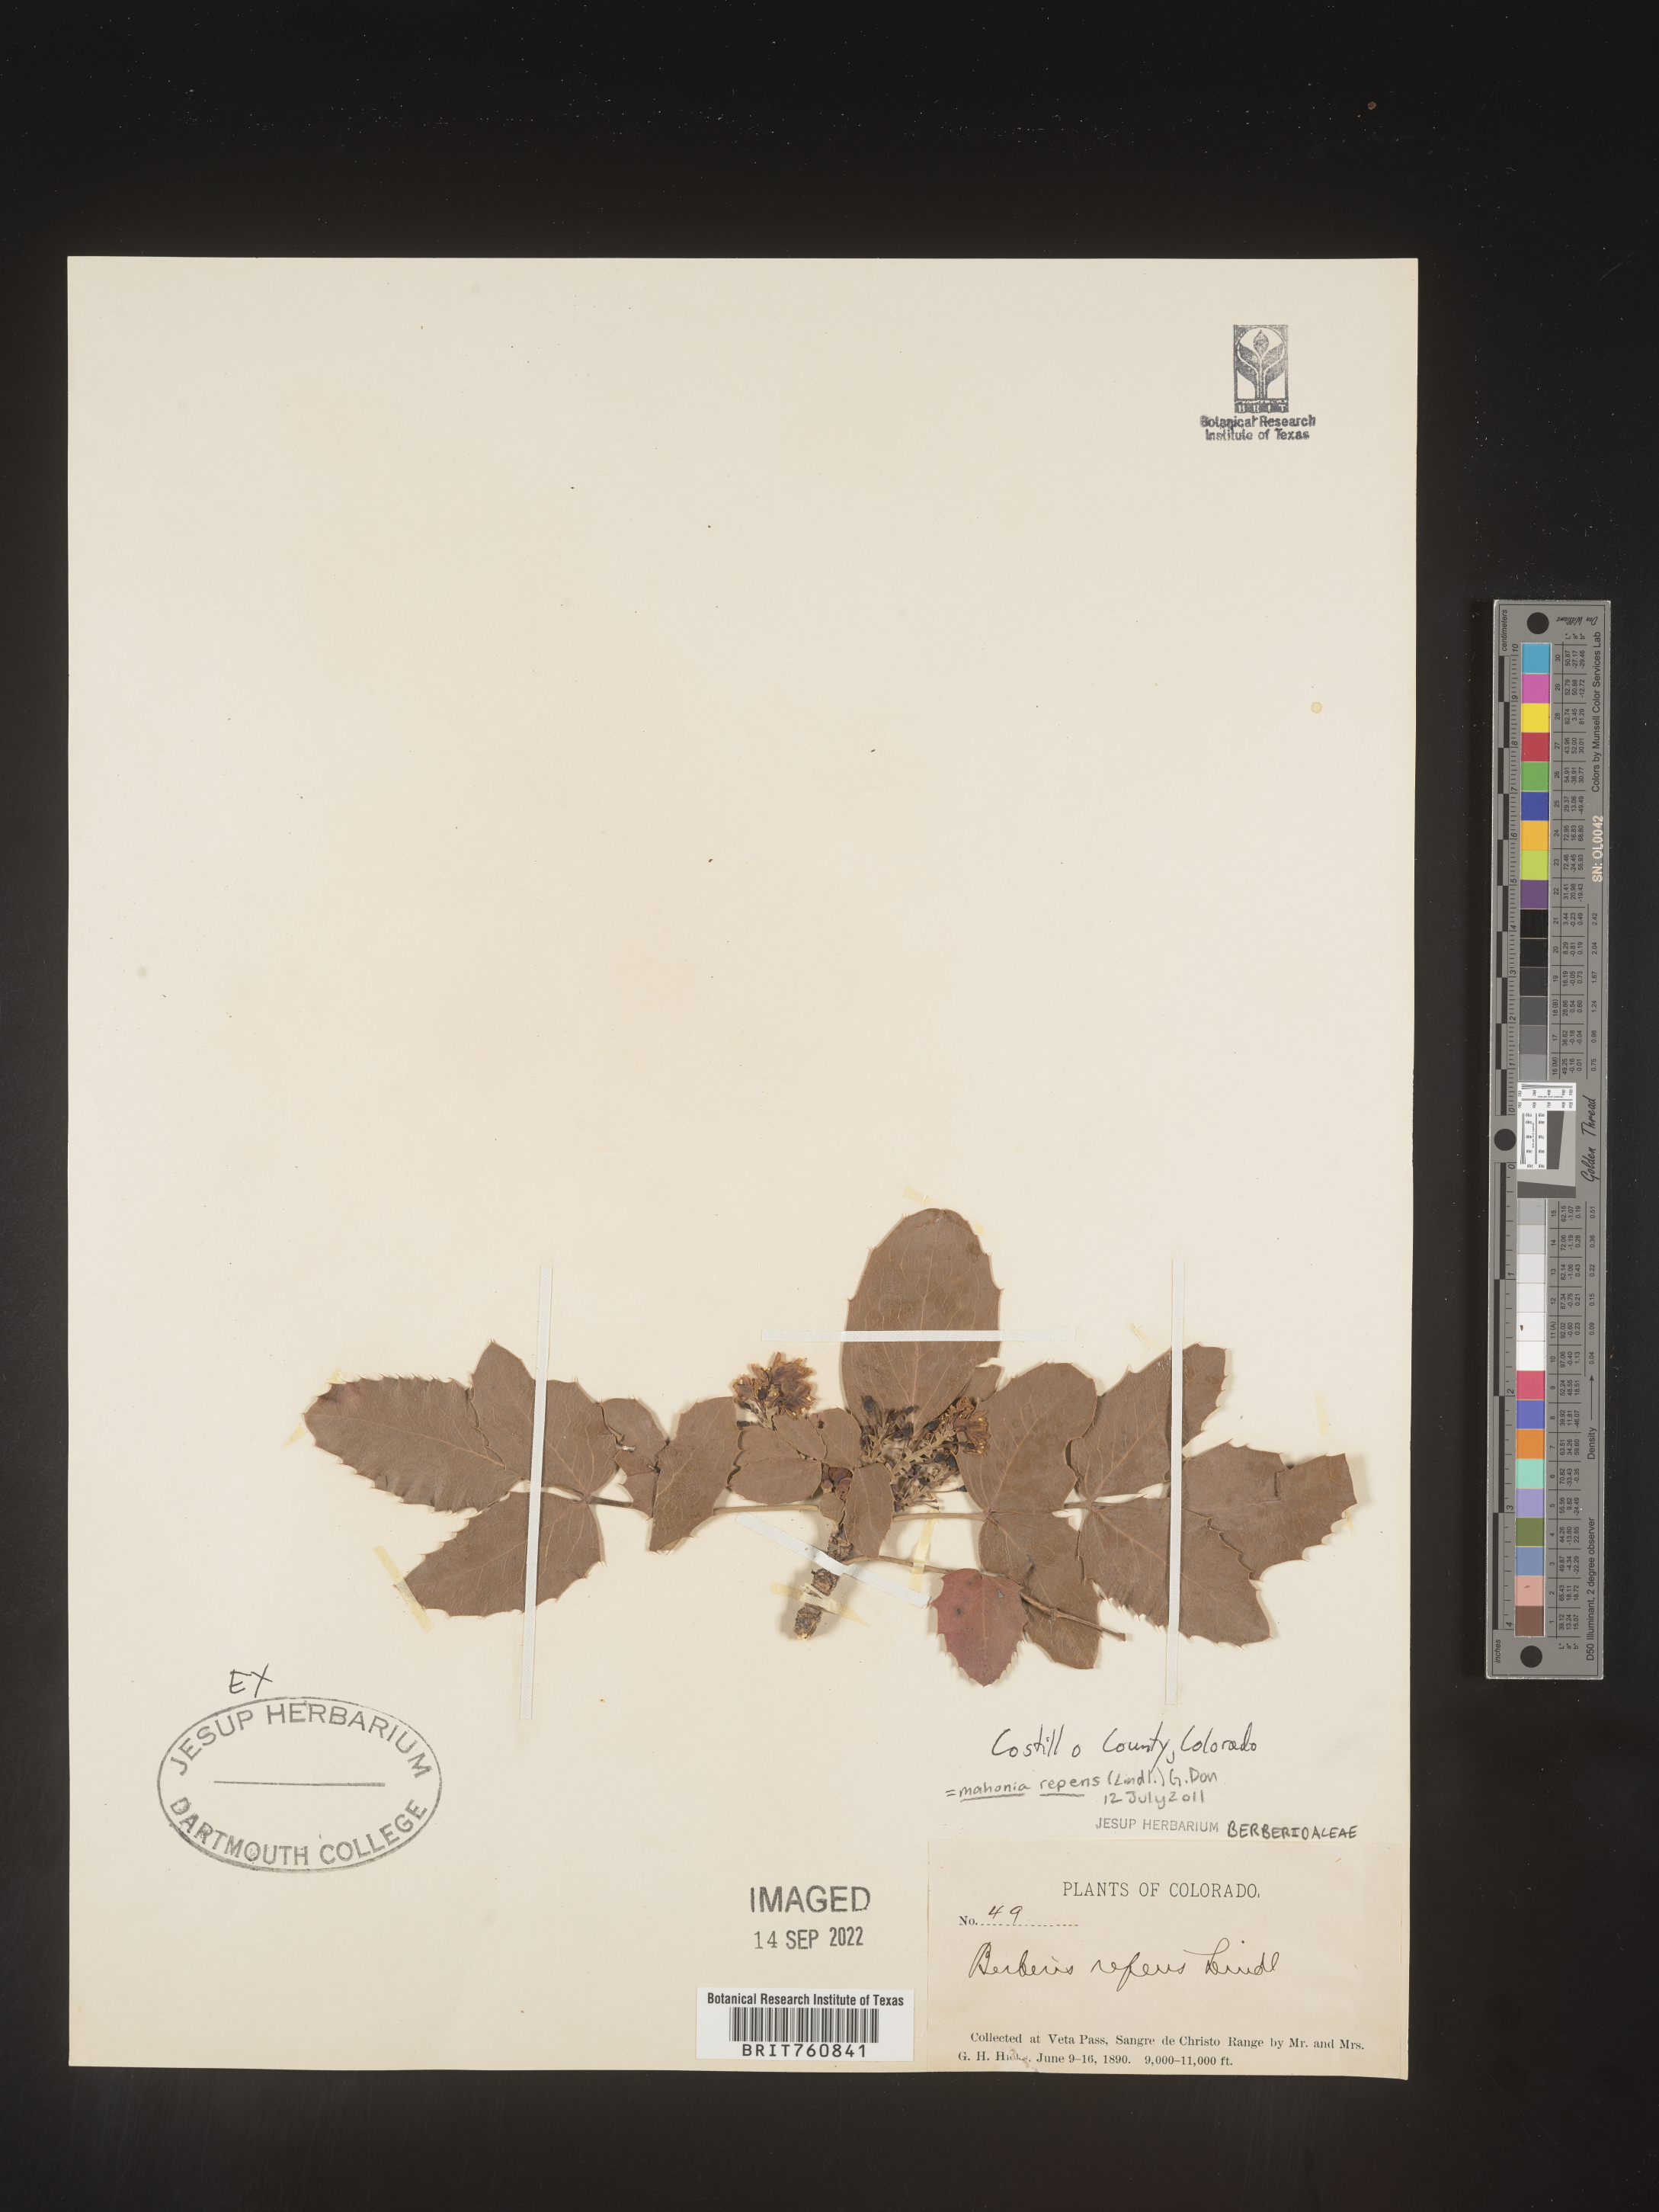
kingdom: Plantae
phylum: Tracheophyta
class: Magnoliopsida
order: Ranunculales
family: Berberidaceae
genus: Mahonia
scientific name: Mahonia repens
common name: Creeping oregon-grape
